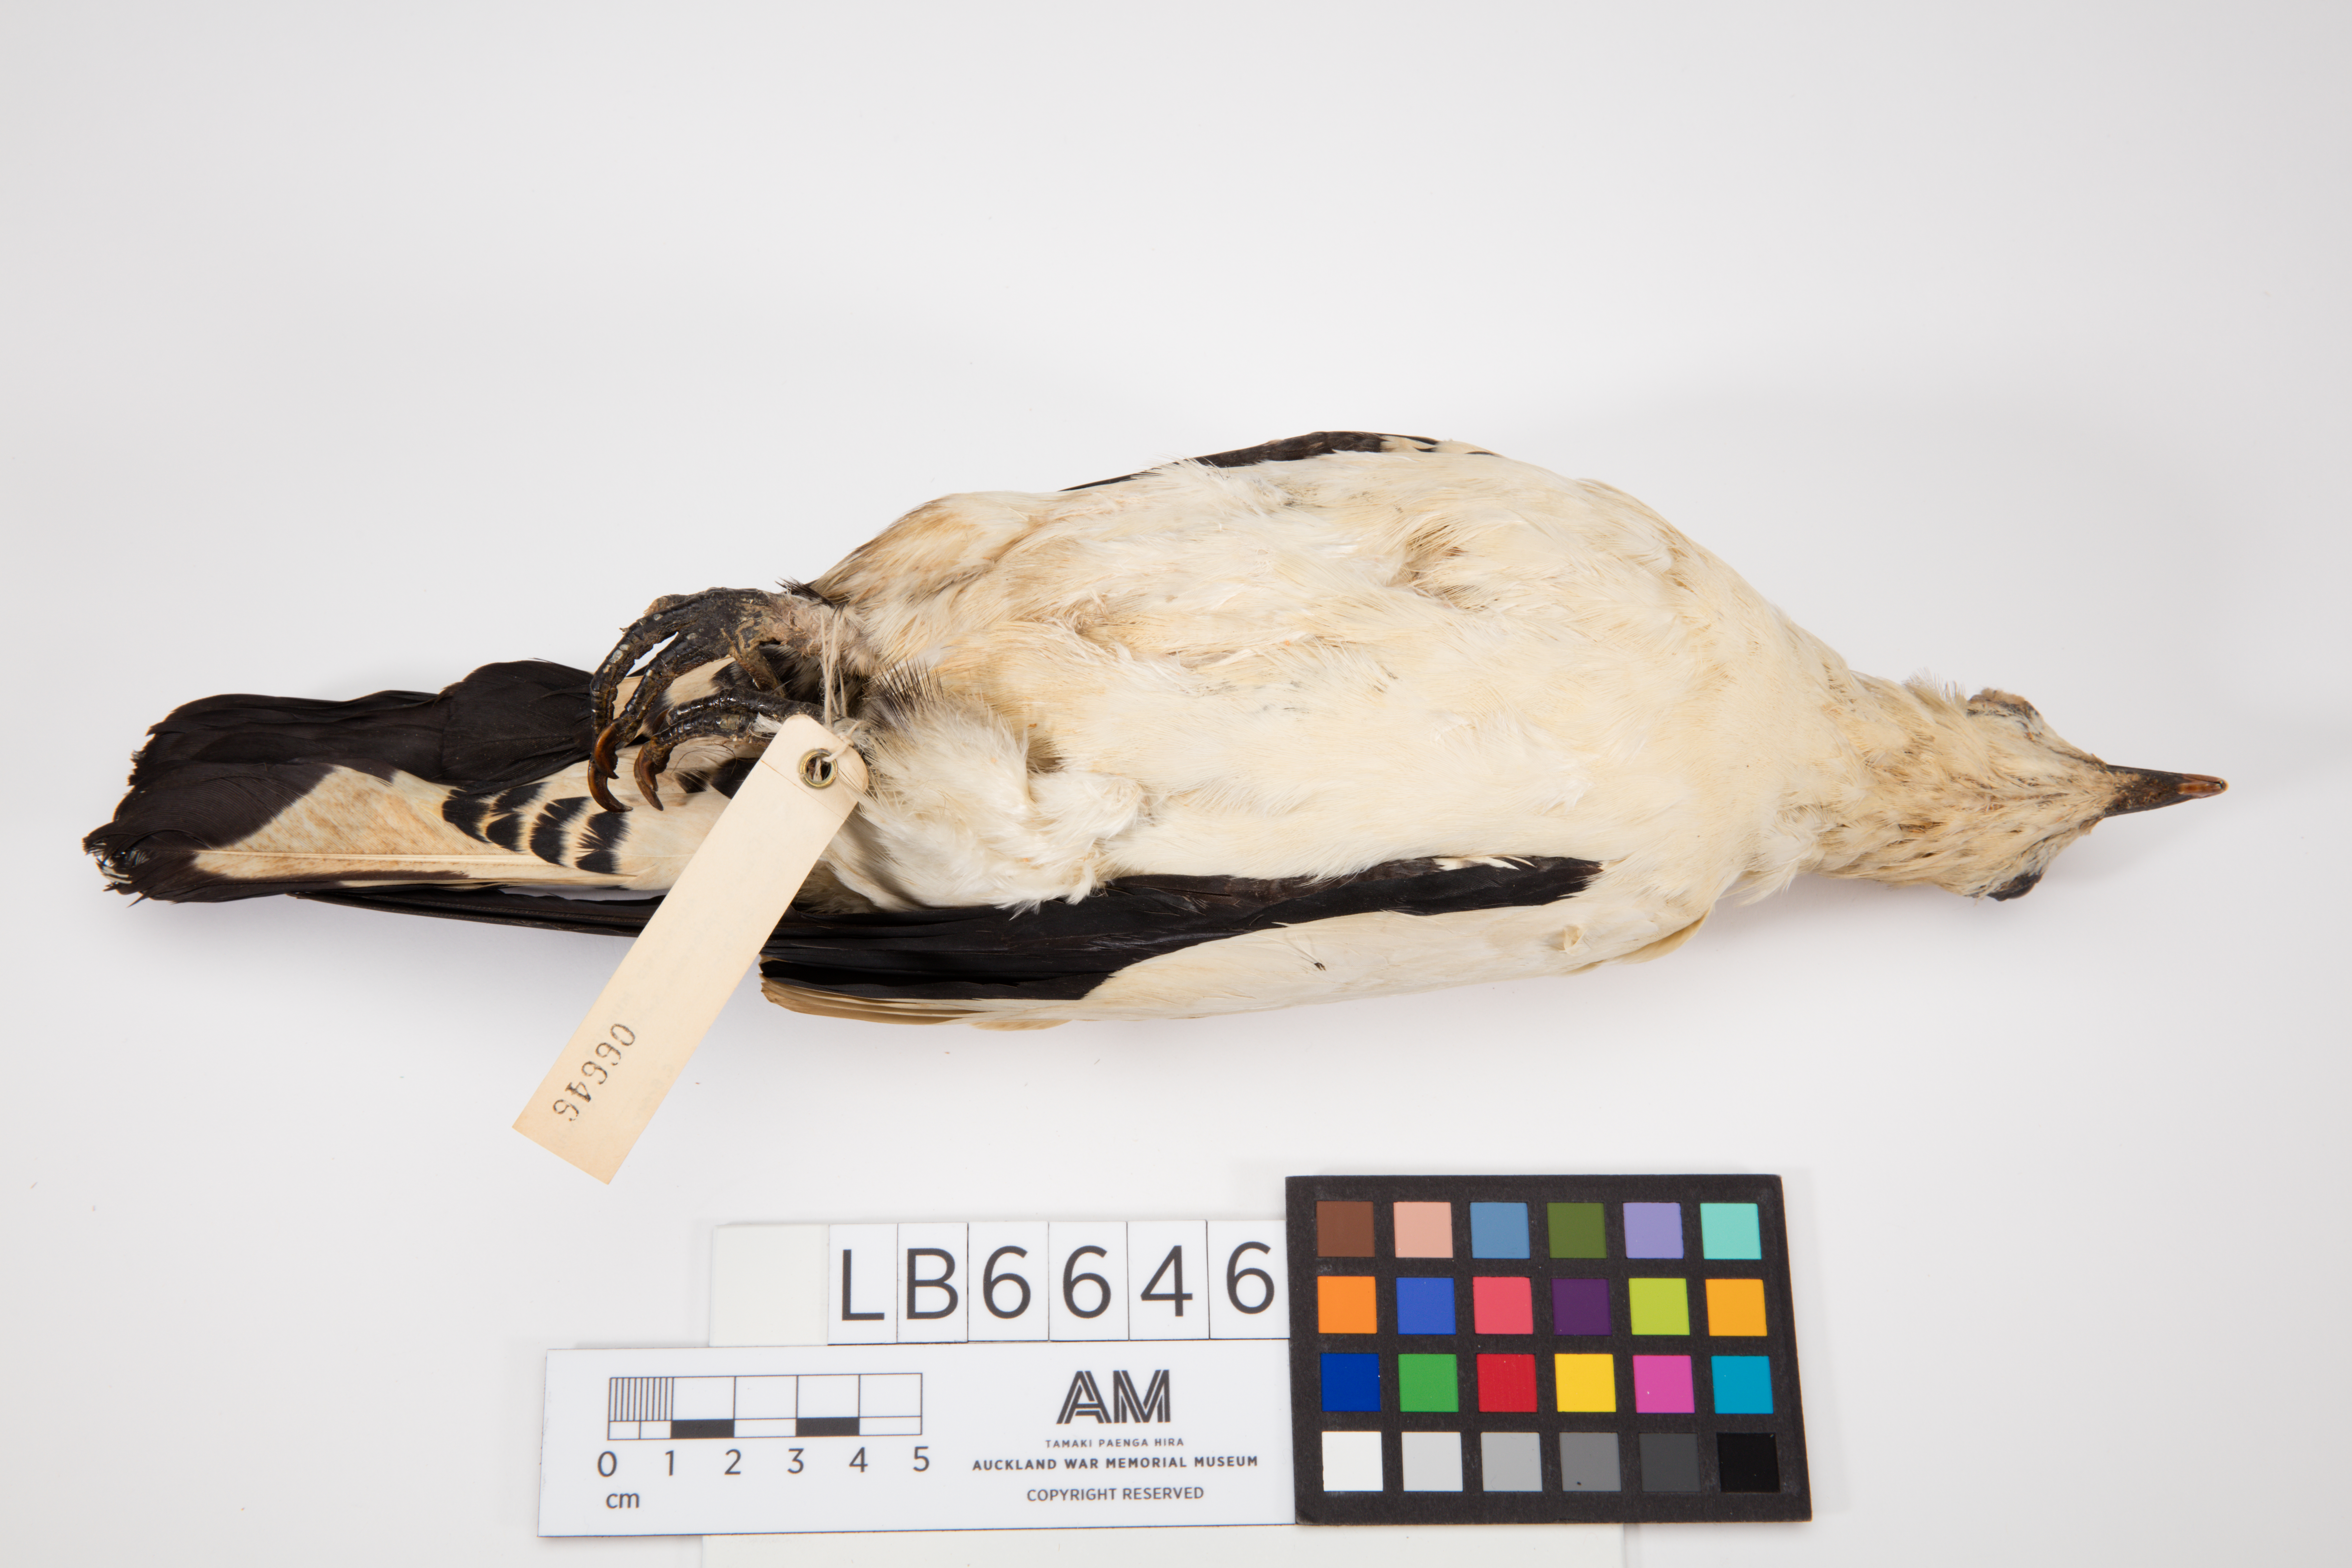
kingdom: Animalia
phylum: Chordata
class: Aves
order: Columbiformes
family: Columbidae
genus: Ducula
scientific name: Ducula spilorrhoa
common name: Torresian imperial pigeon
